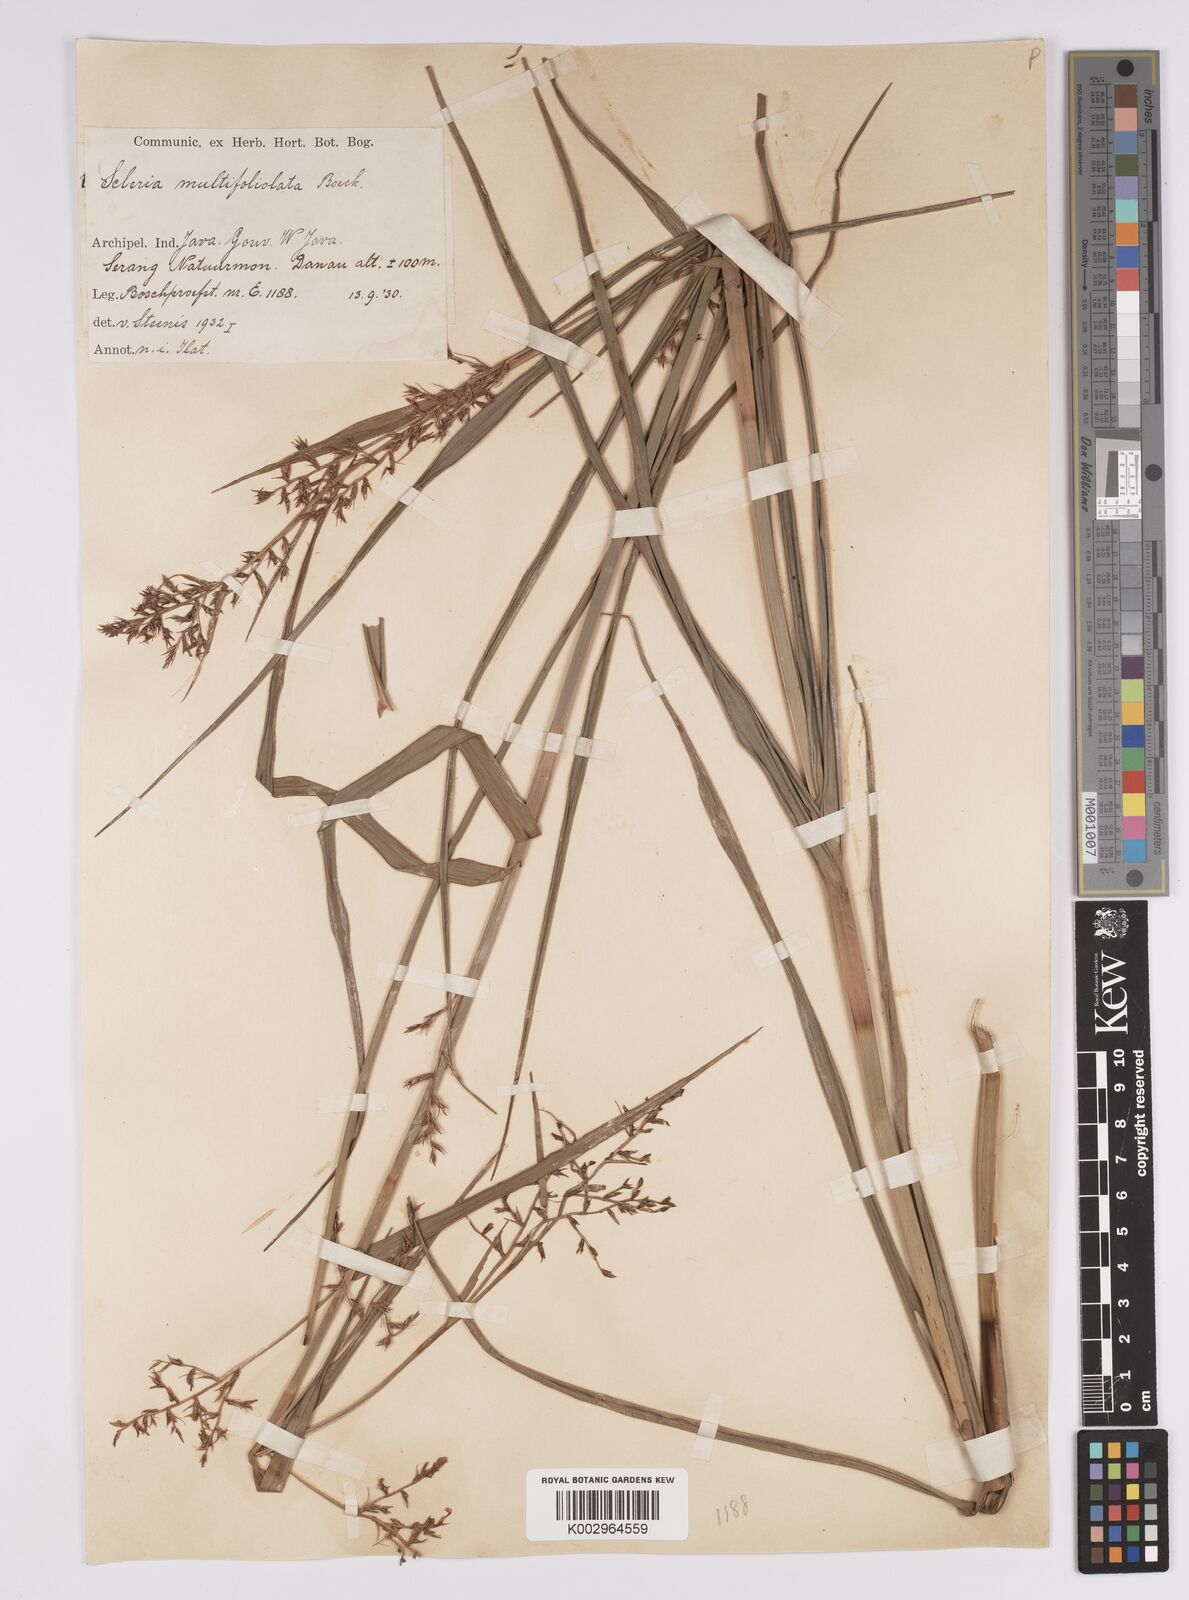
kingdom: Plantae
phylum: Tracheophyta
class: Liliopsida
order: Poales
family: Cyperaceae
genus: Scleria
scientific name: Scleria purpurascens
